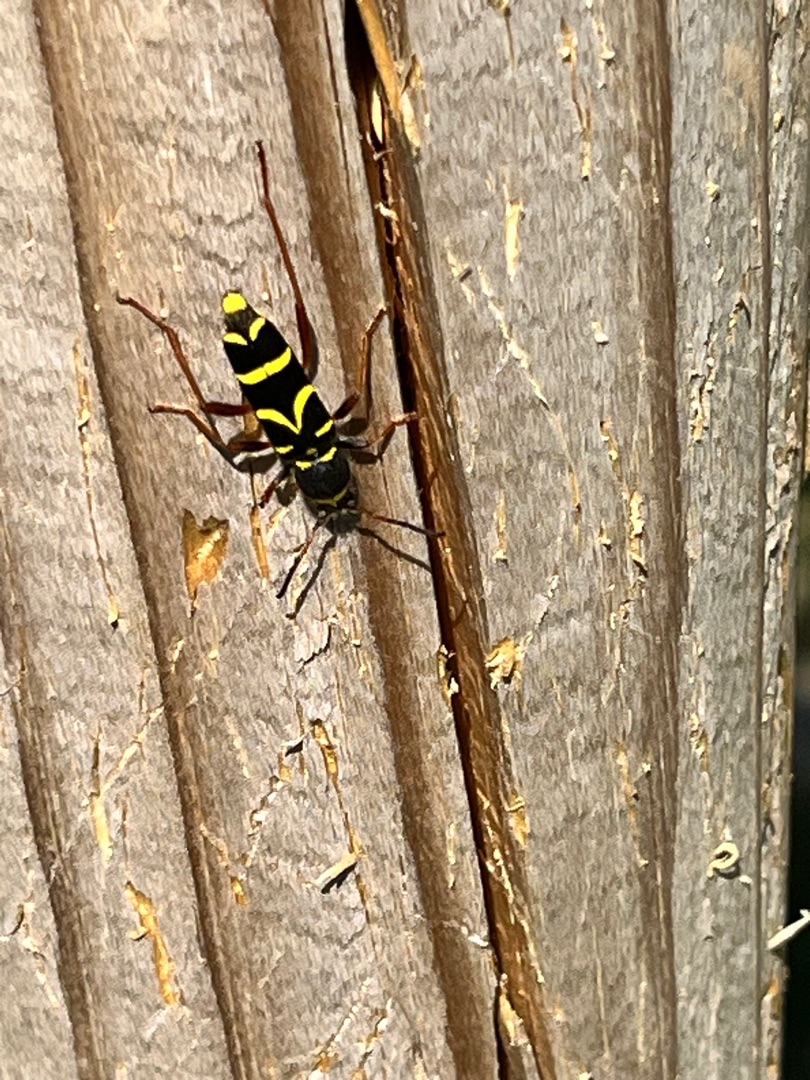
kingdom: Animalia
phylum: Arthropoda
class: Insecta
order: Coleoptera
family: Cerambycidae
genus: Clytus
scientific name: Clytus arietis
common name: Lille hvepsebuk
